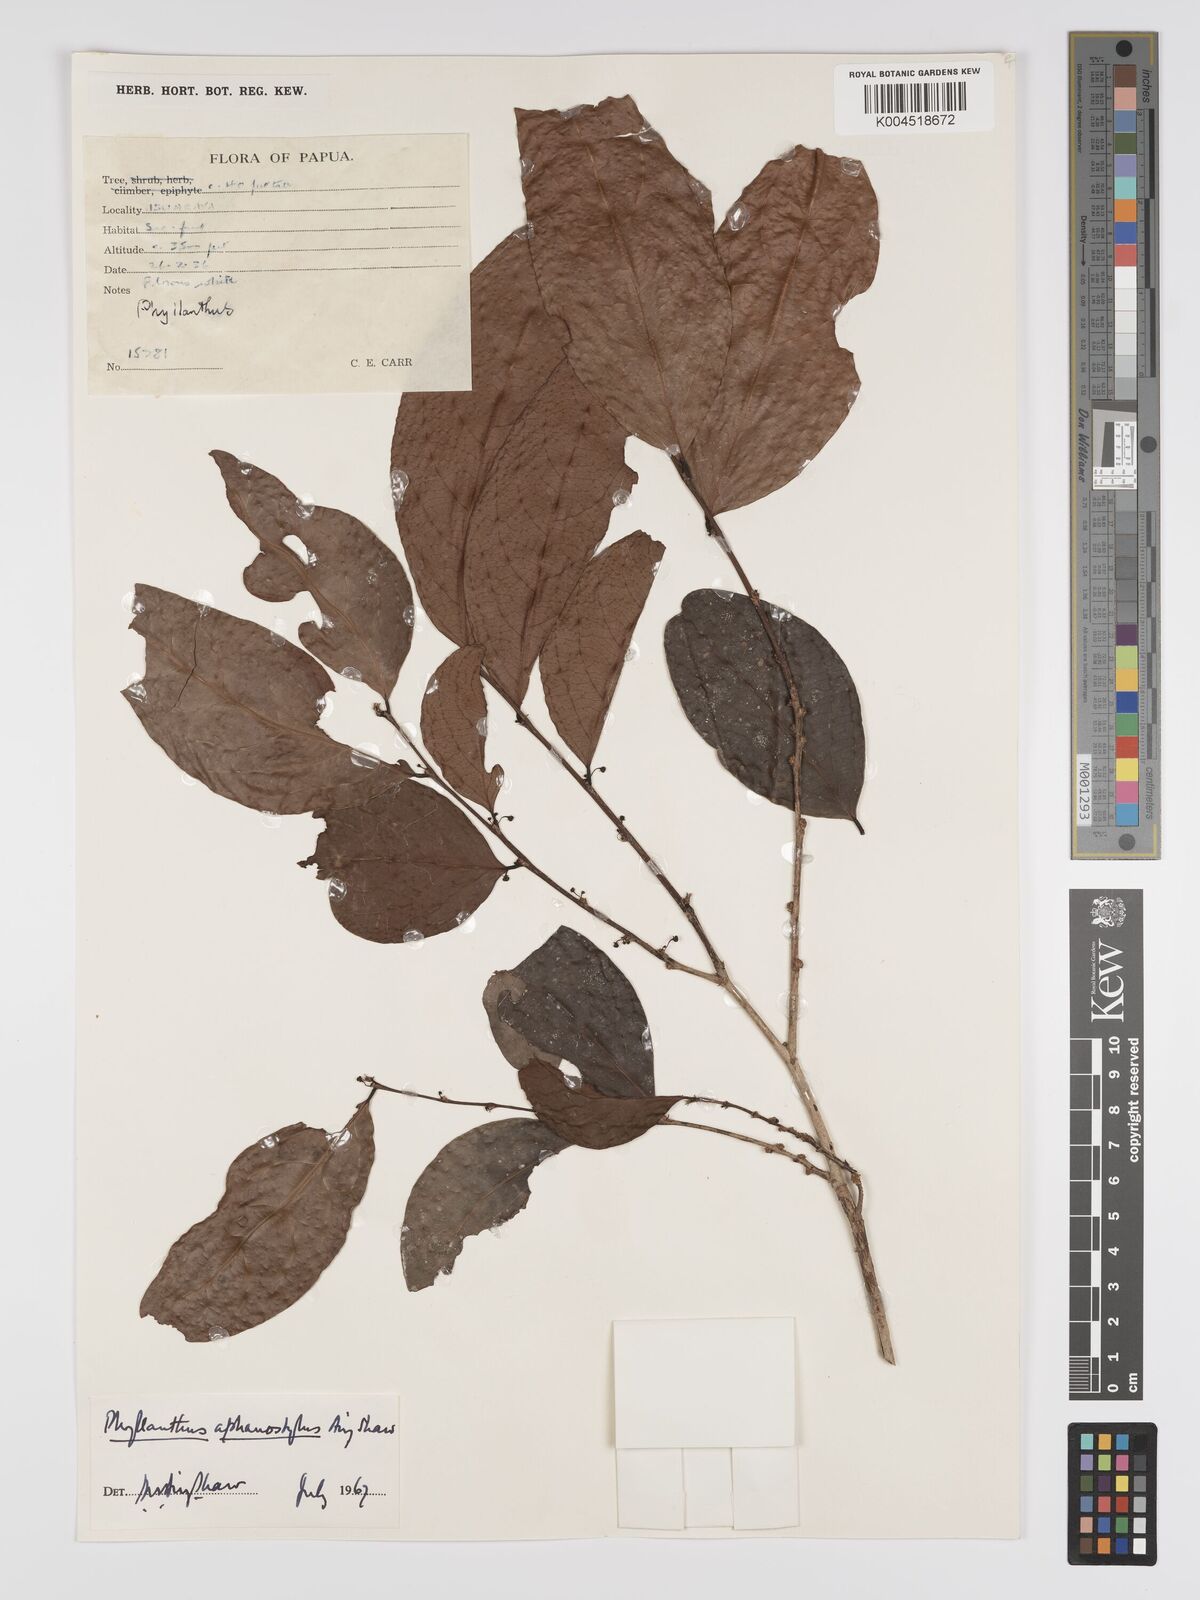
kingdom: Plantae
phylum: Tracheophyta
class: Magnoliopsida
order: Malpighiales
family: Phyllanthaceae
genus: Phyllanthus
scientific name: Phyllanthus aphanostylus
